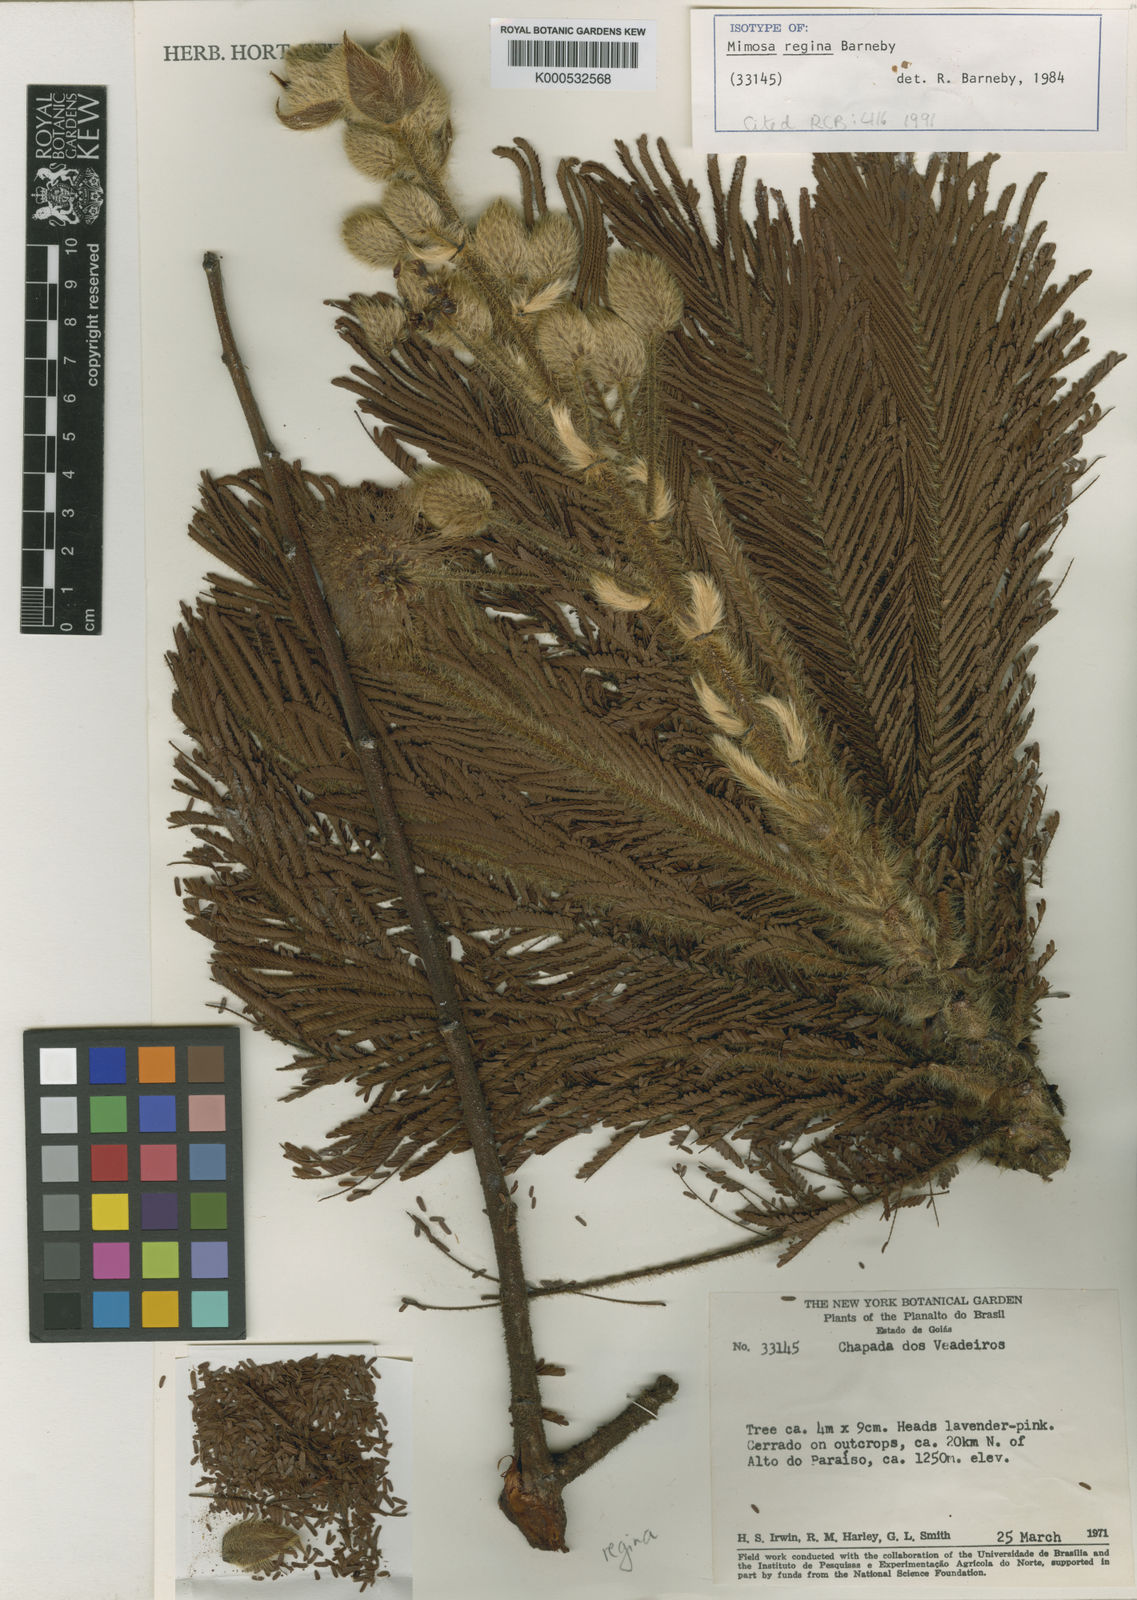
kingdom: Plantae
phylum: Tracheophyta
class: Magnoliopsida
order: Fabales
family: Fabaceae
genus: Mimosa
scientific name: Mimosa regina
